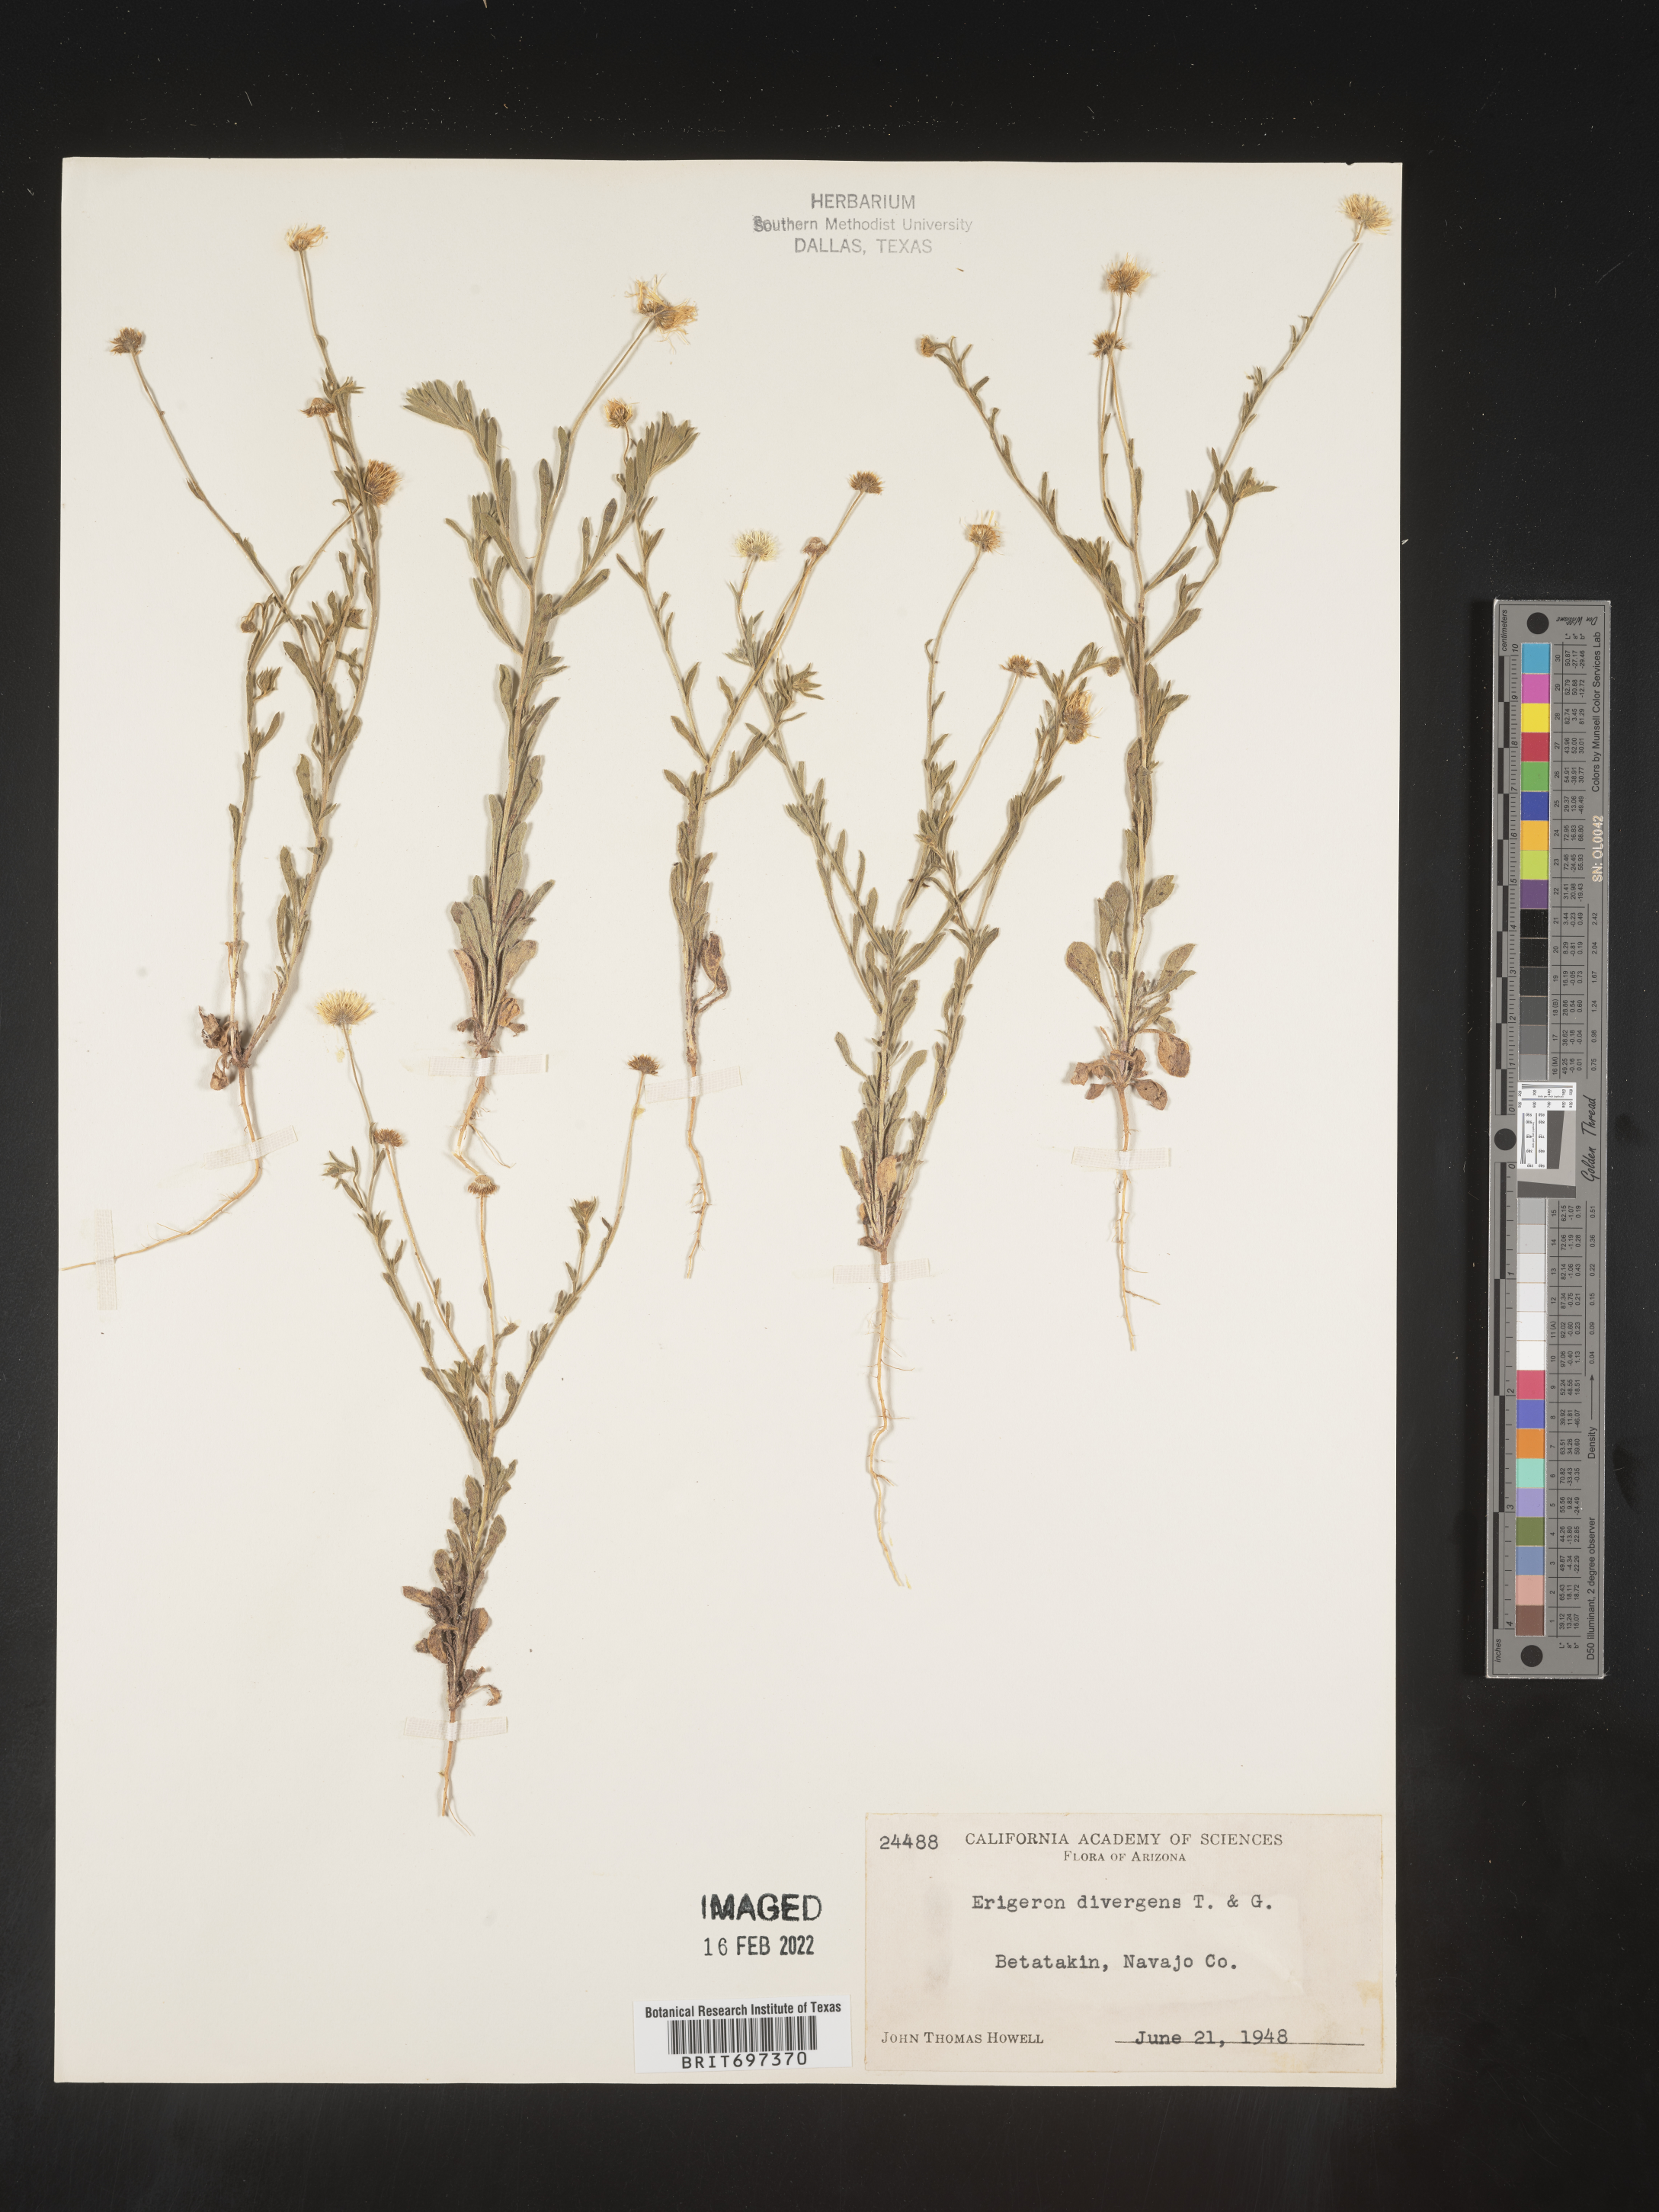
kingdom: Plantae
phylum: Tracheophyta
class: Magnoliopsida
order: Asterales
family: Asteraceae
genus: Erigeron
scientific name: Erigeron divergens
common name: Diffuse fleabane
